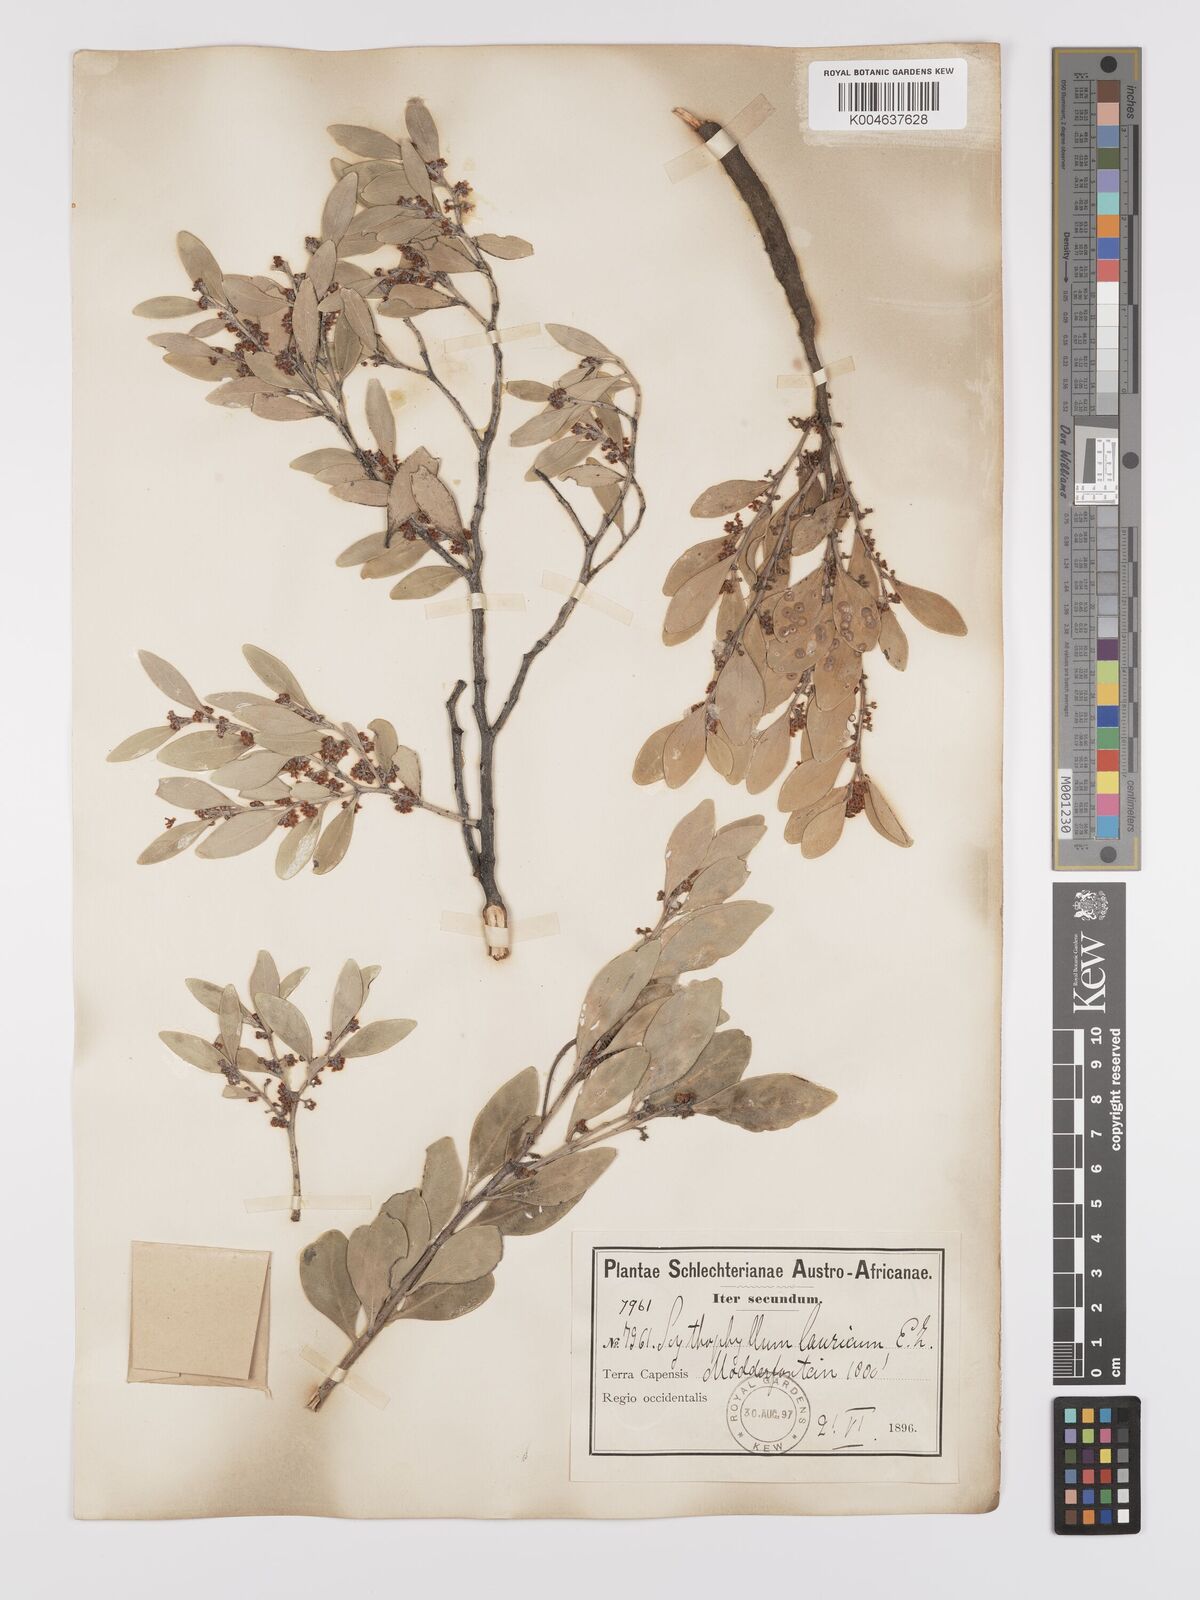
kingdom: Plantae
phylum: Tracheophyta
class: Magnoliopsida
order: Celastrales
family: Celastraceae
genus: Gymnosporia
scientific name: Gymnosporia laurina
